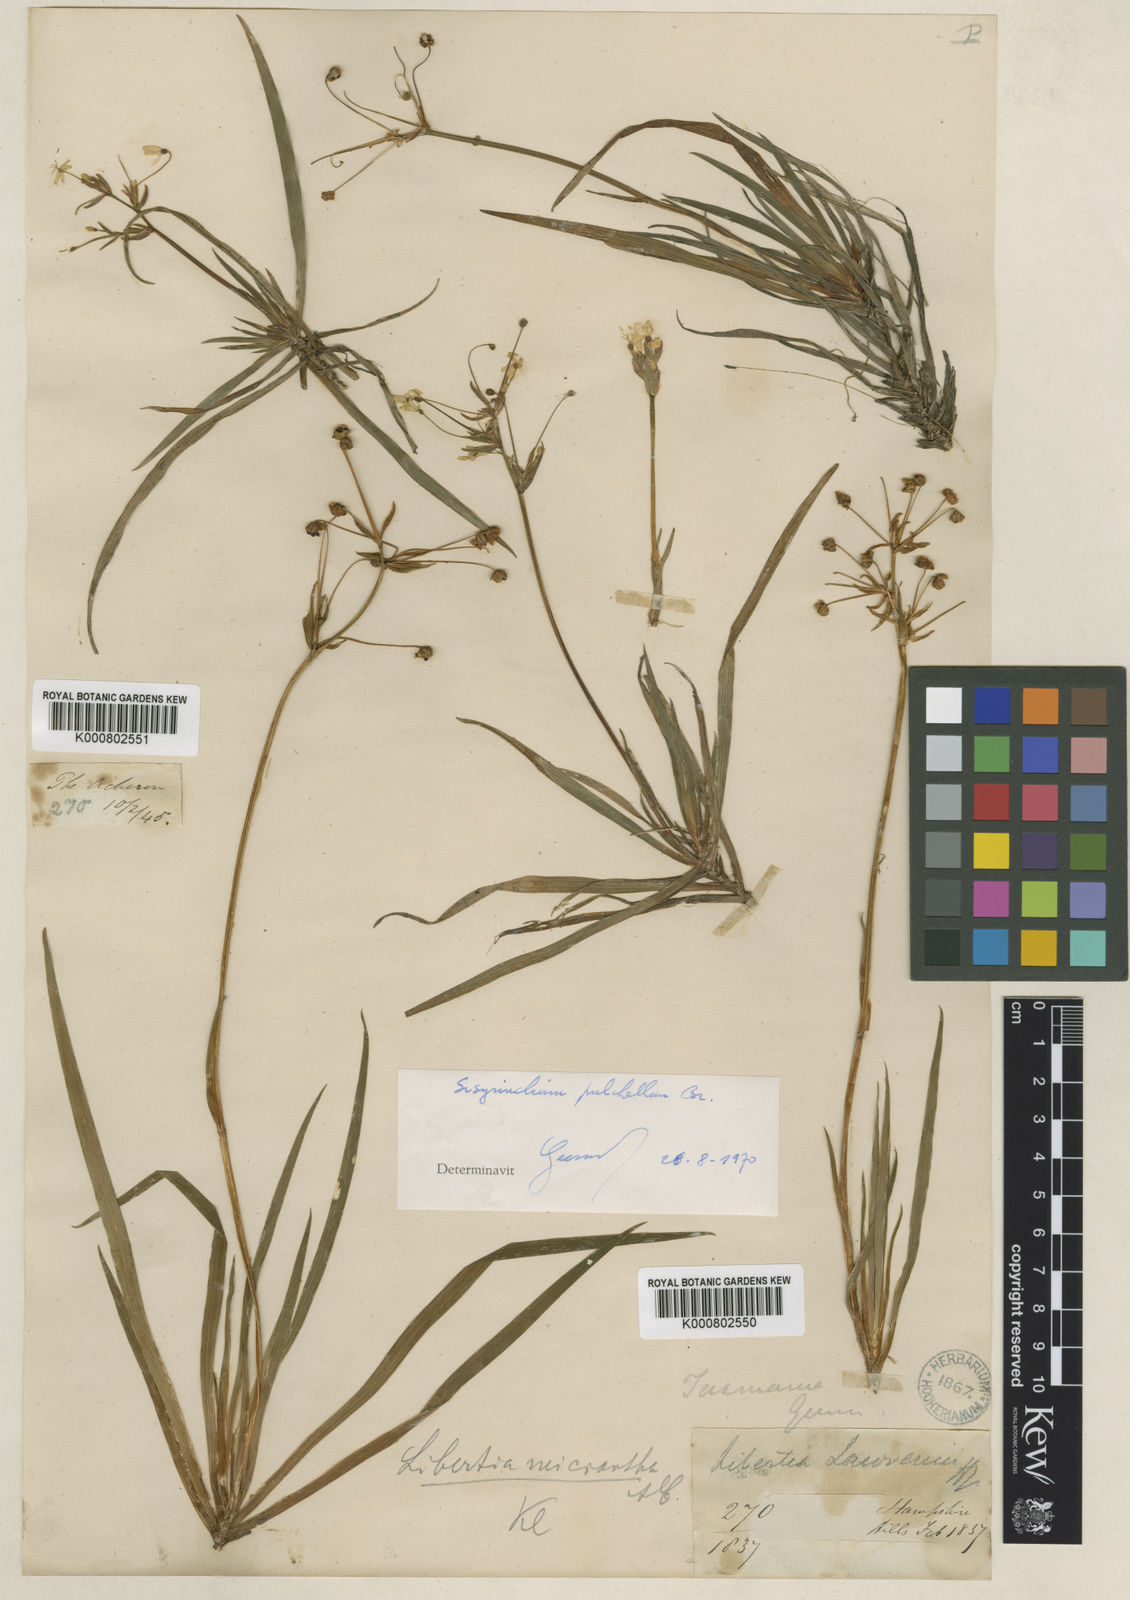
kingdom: Plantae
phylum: Tracheophyta
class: Liliopsida
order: Asparagales
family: Iridaceae
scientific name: Iridaceae
